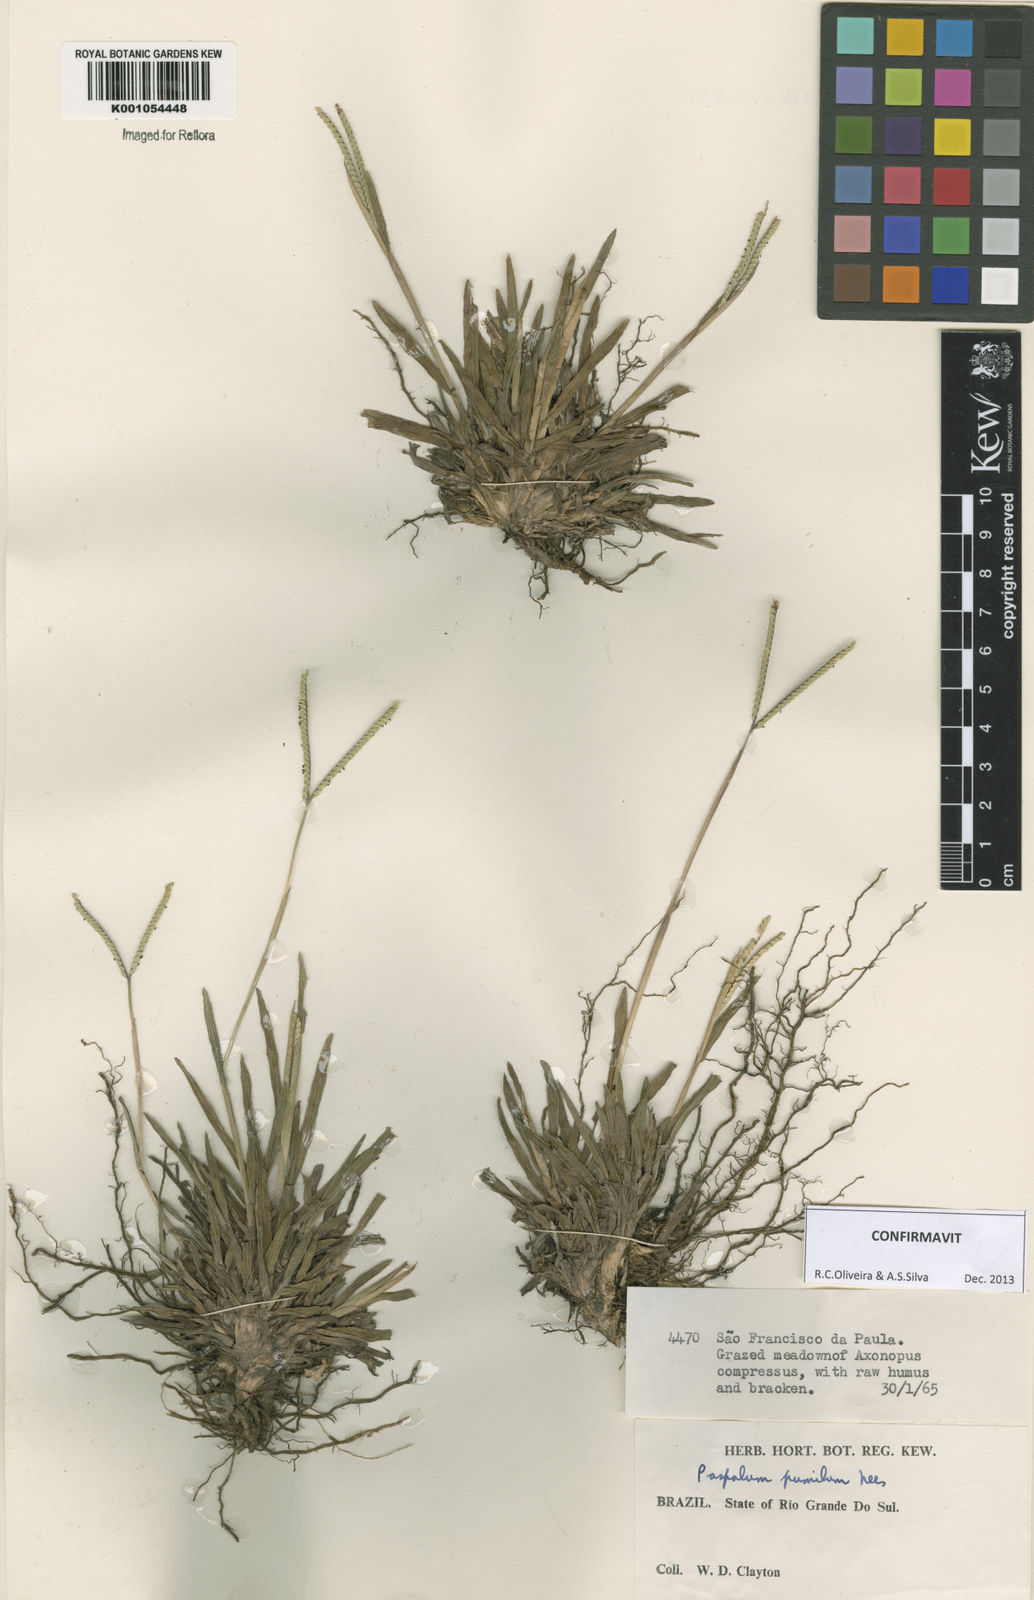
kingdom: Plantae
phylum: Tracheophyta
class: Liliopsida
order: Poales
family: Poaceae
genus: Paspalum
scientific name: Paspalum pumilum
